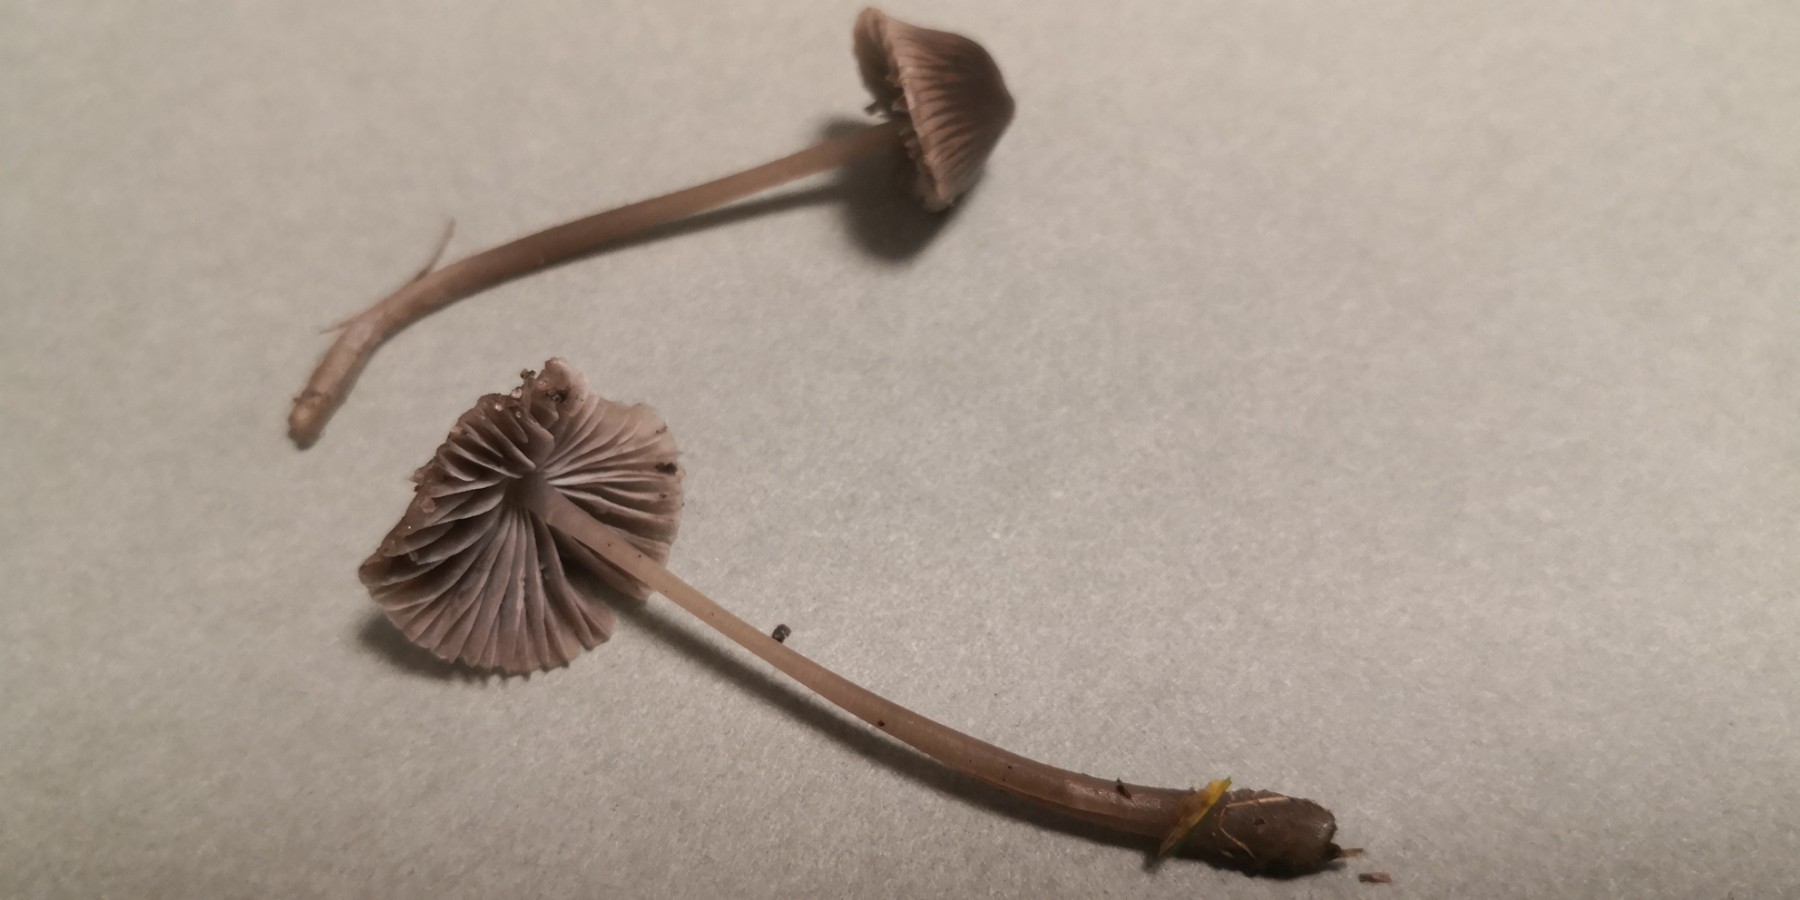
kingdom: Fungi
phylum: Basidiomycota
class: Agaricomycetes
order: Agaricales
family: Mycenaceae
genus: Mycena
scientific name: Mycena aetites
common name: plæne-huesvamp
